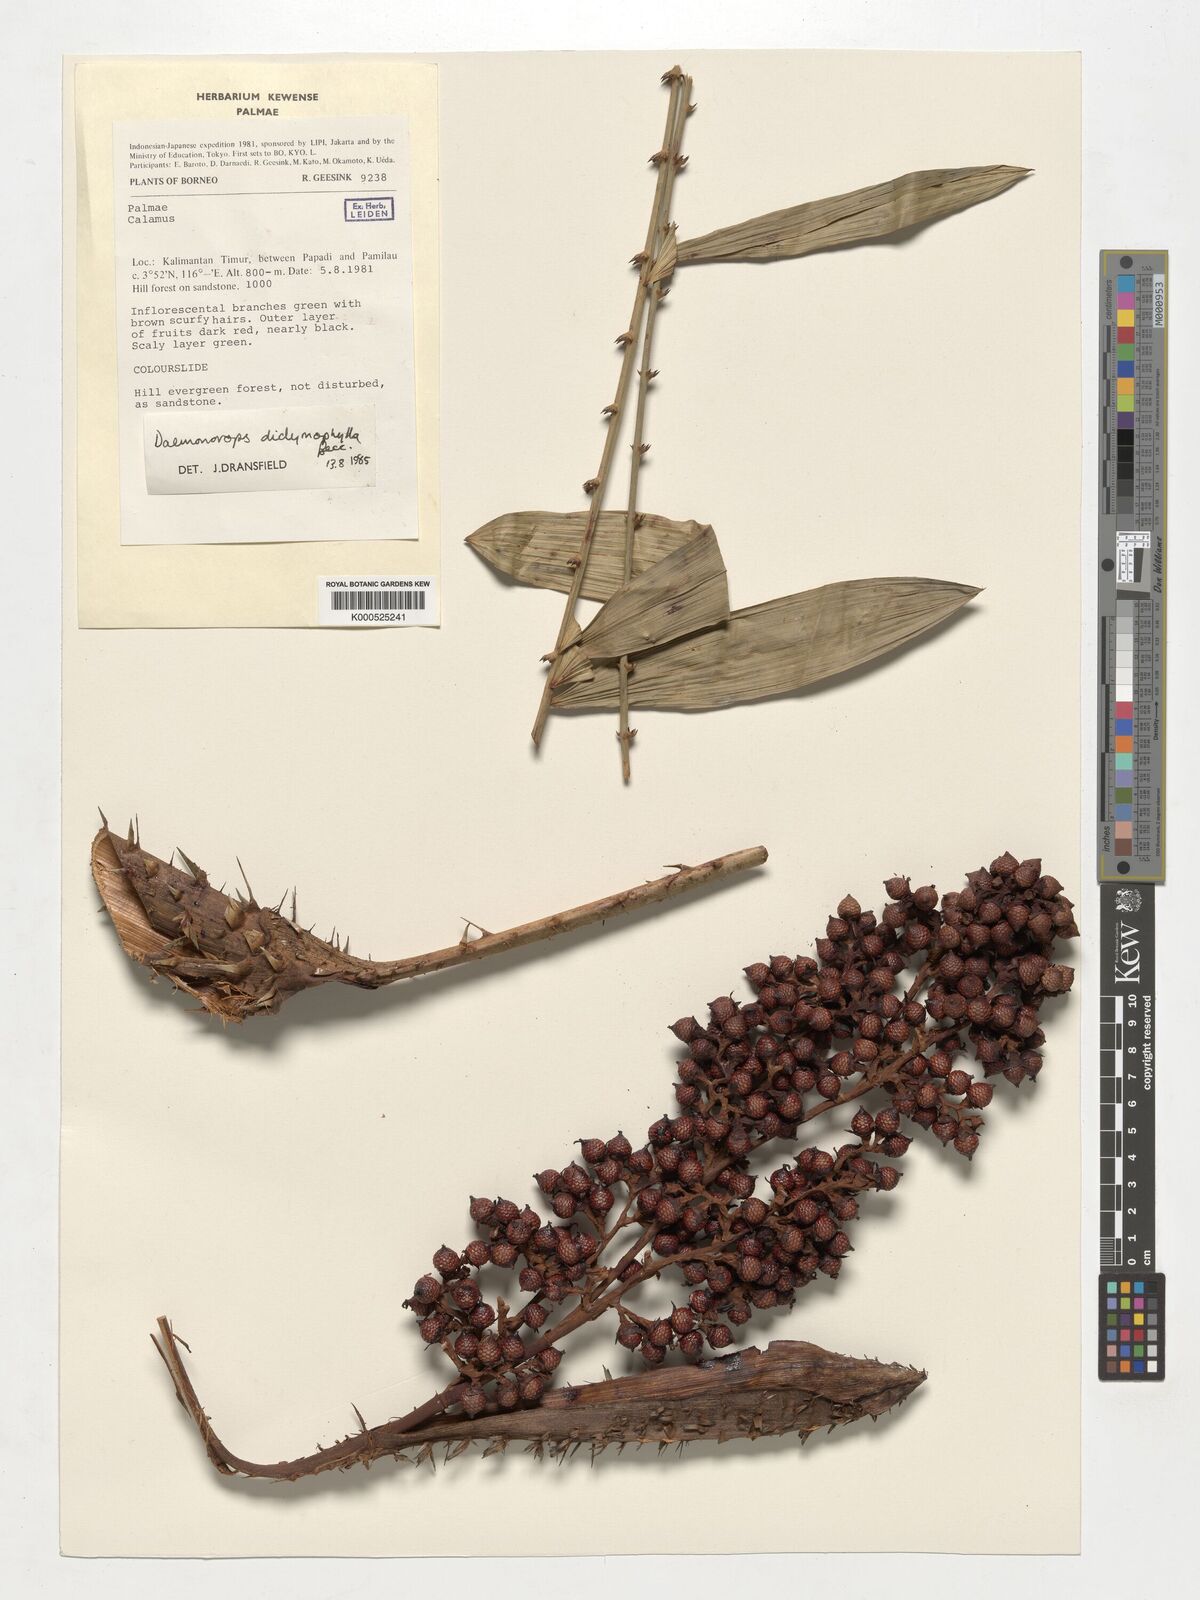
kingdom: Plantae
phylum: Tracheophyta
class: Liliopsida
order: Arecales
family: Arecaceae
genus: Calamus
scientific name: Calamus gracilipes
